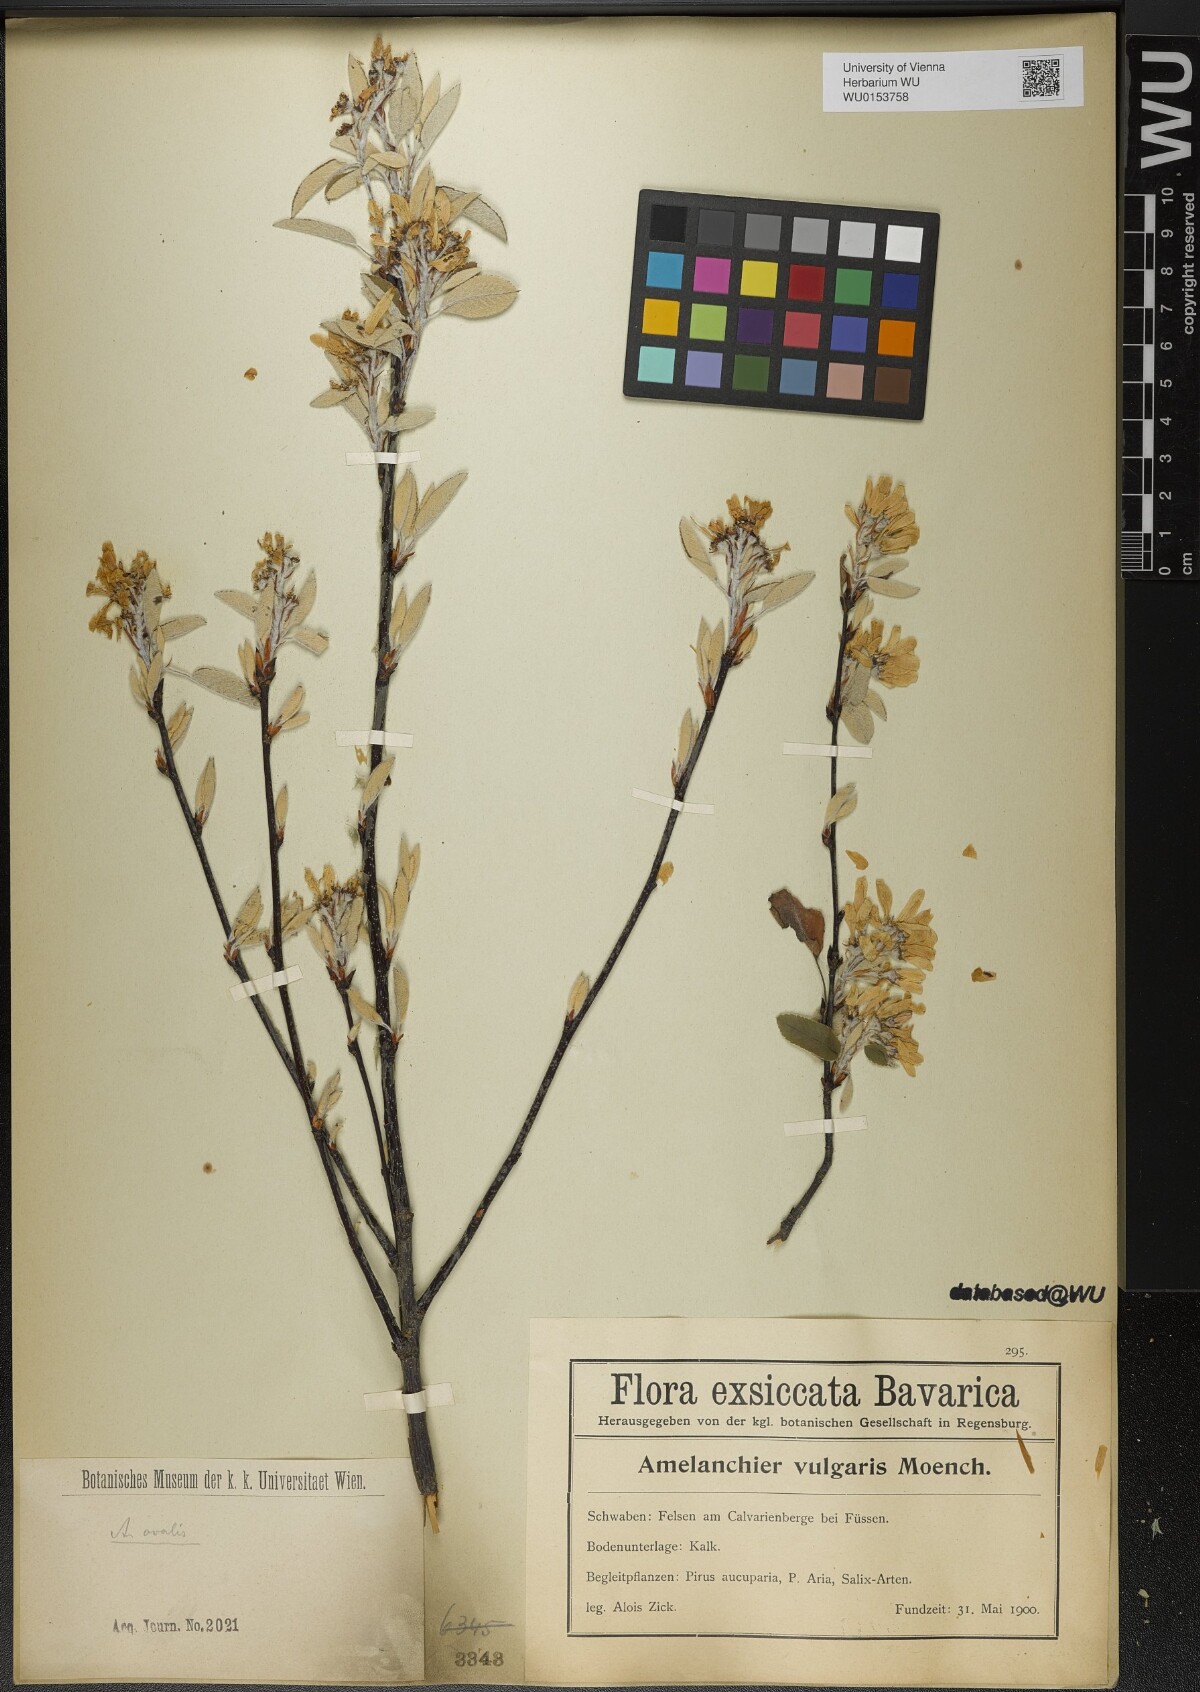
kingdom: Plantae
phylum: Tracheophyta
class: Magnoliopsida
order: Rosales
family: Rosaceae
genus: Amelanchier
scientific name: Amelanchier ovalis
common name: Serviceberry
